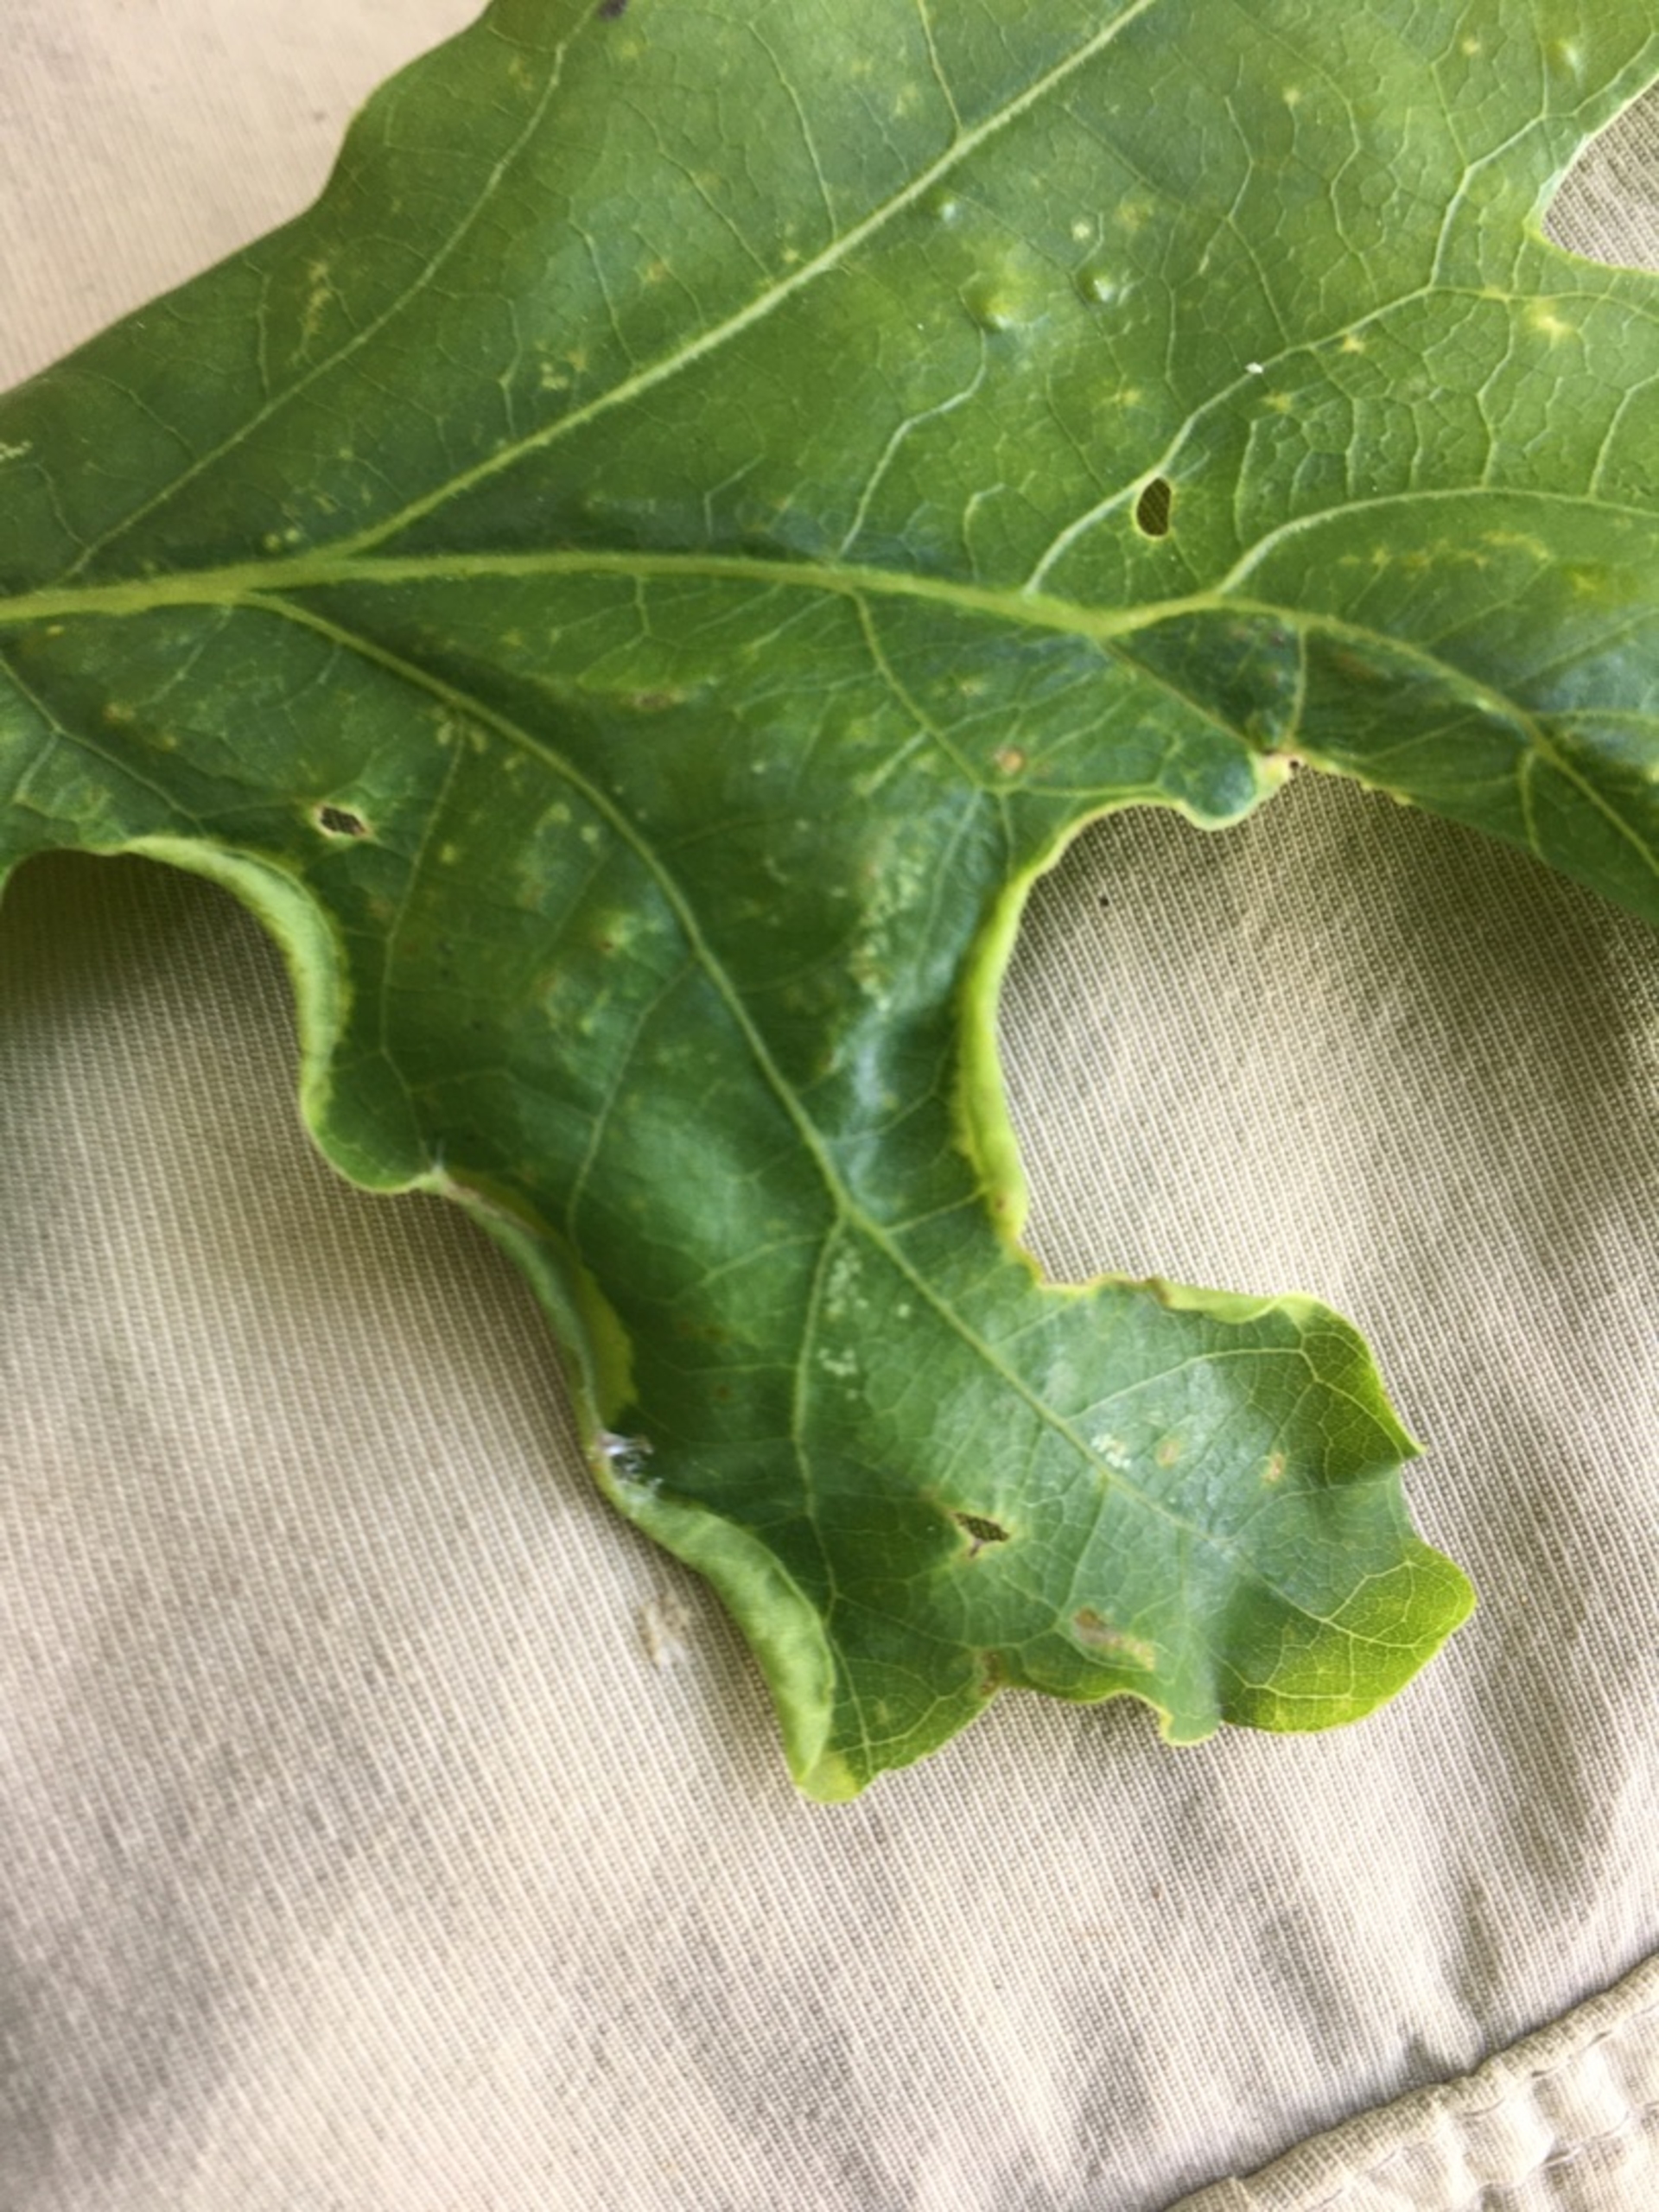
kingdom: Animalia
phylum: Arthropoda
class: Insecta
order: Diptera
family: Cecidomyiidae
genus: Macrodiplosis
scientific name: Macrodiplosis volvens
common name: Egerullegalmyg
